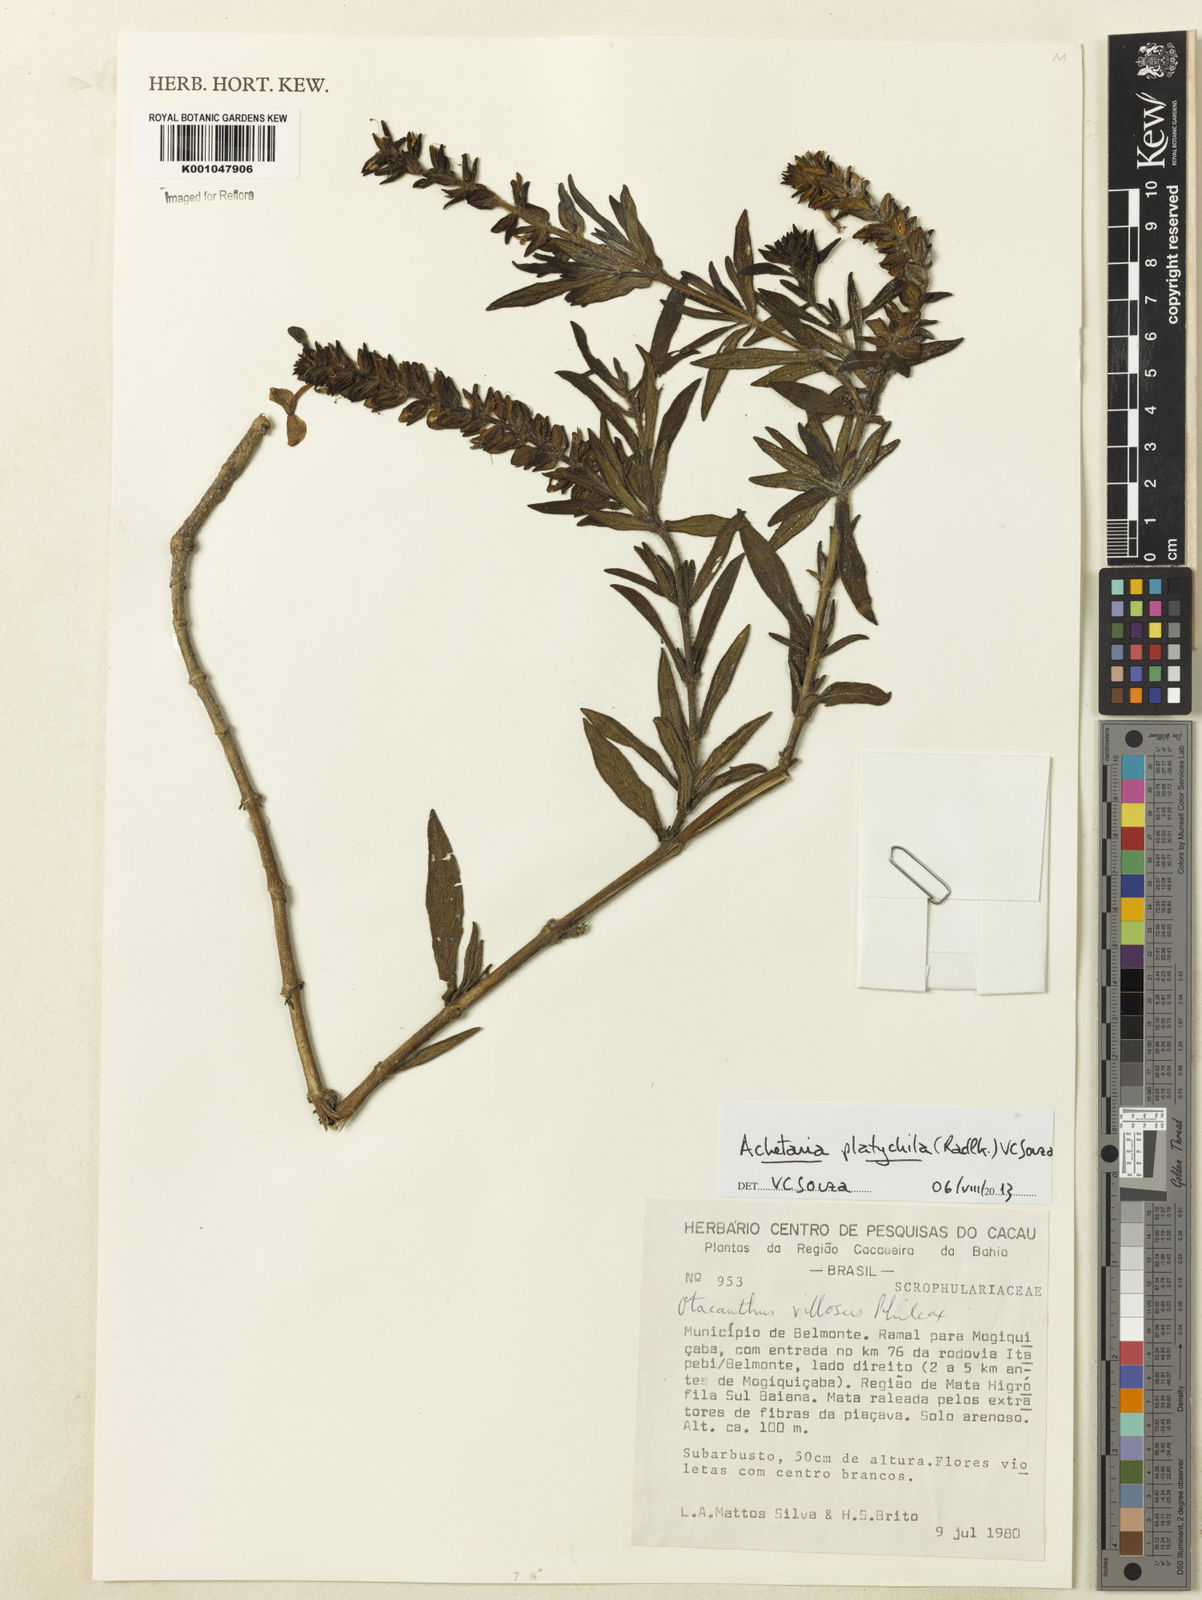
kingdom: Plantae
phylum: Tracheophyta
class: Magnoliopsida
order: Lamiales
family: Plantaginaceae
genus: Matourea
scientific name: Matourea platychila
